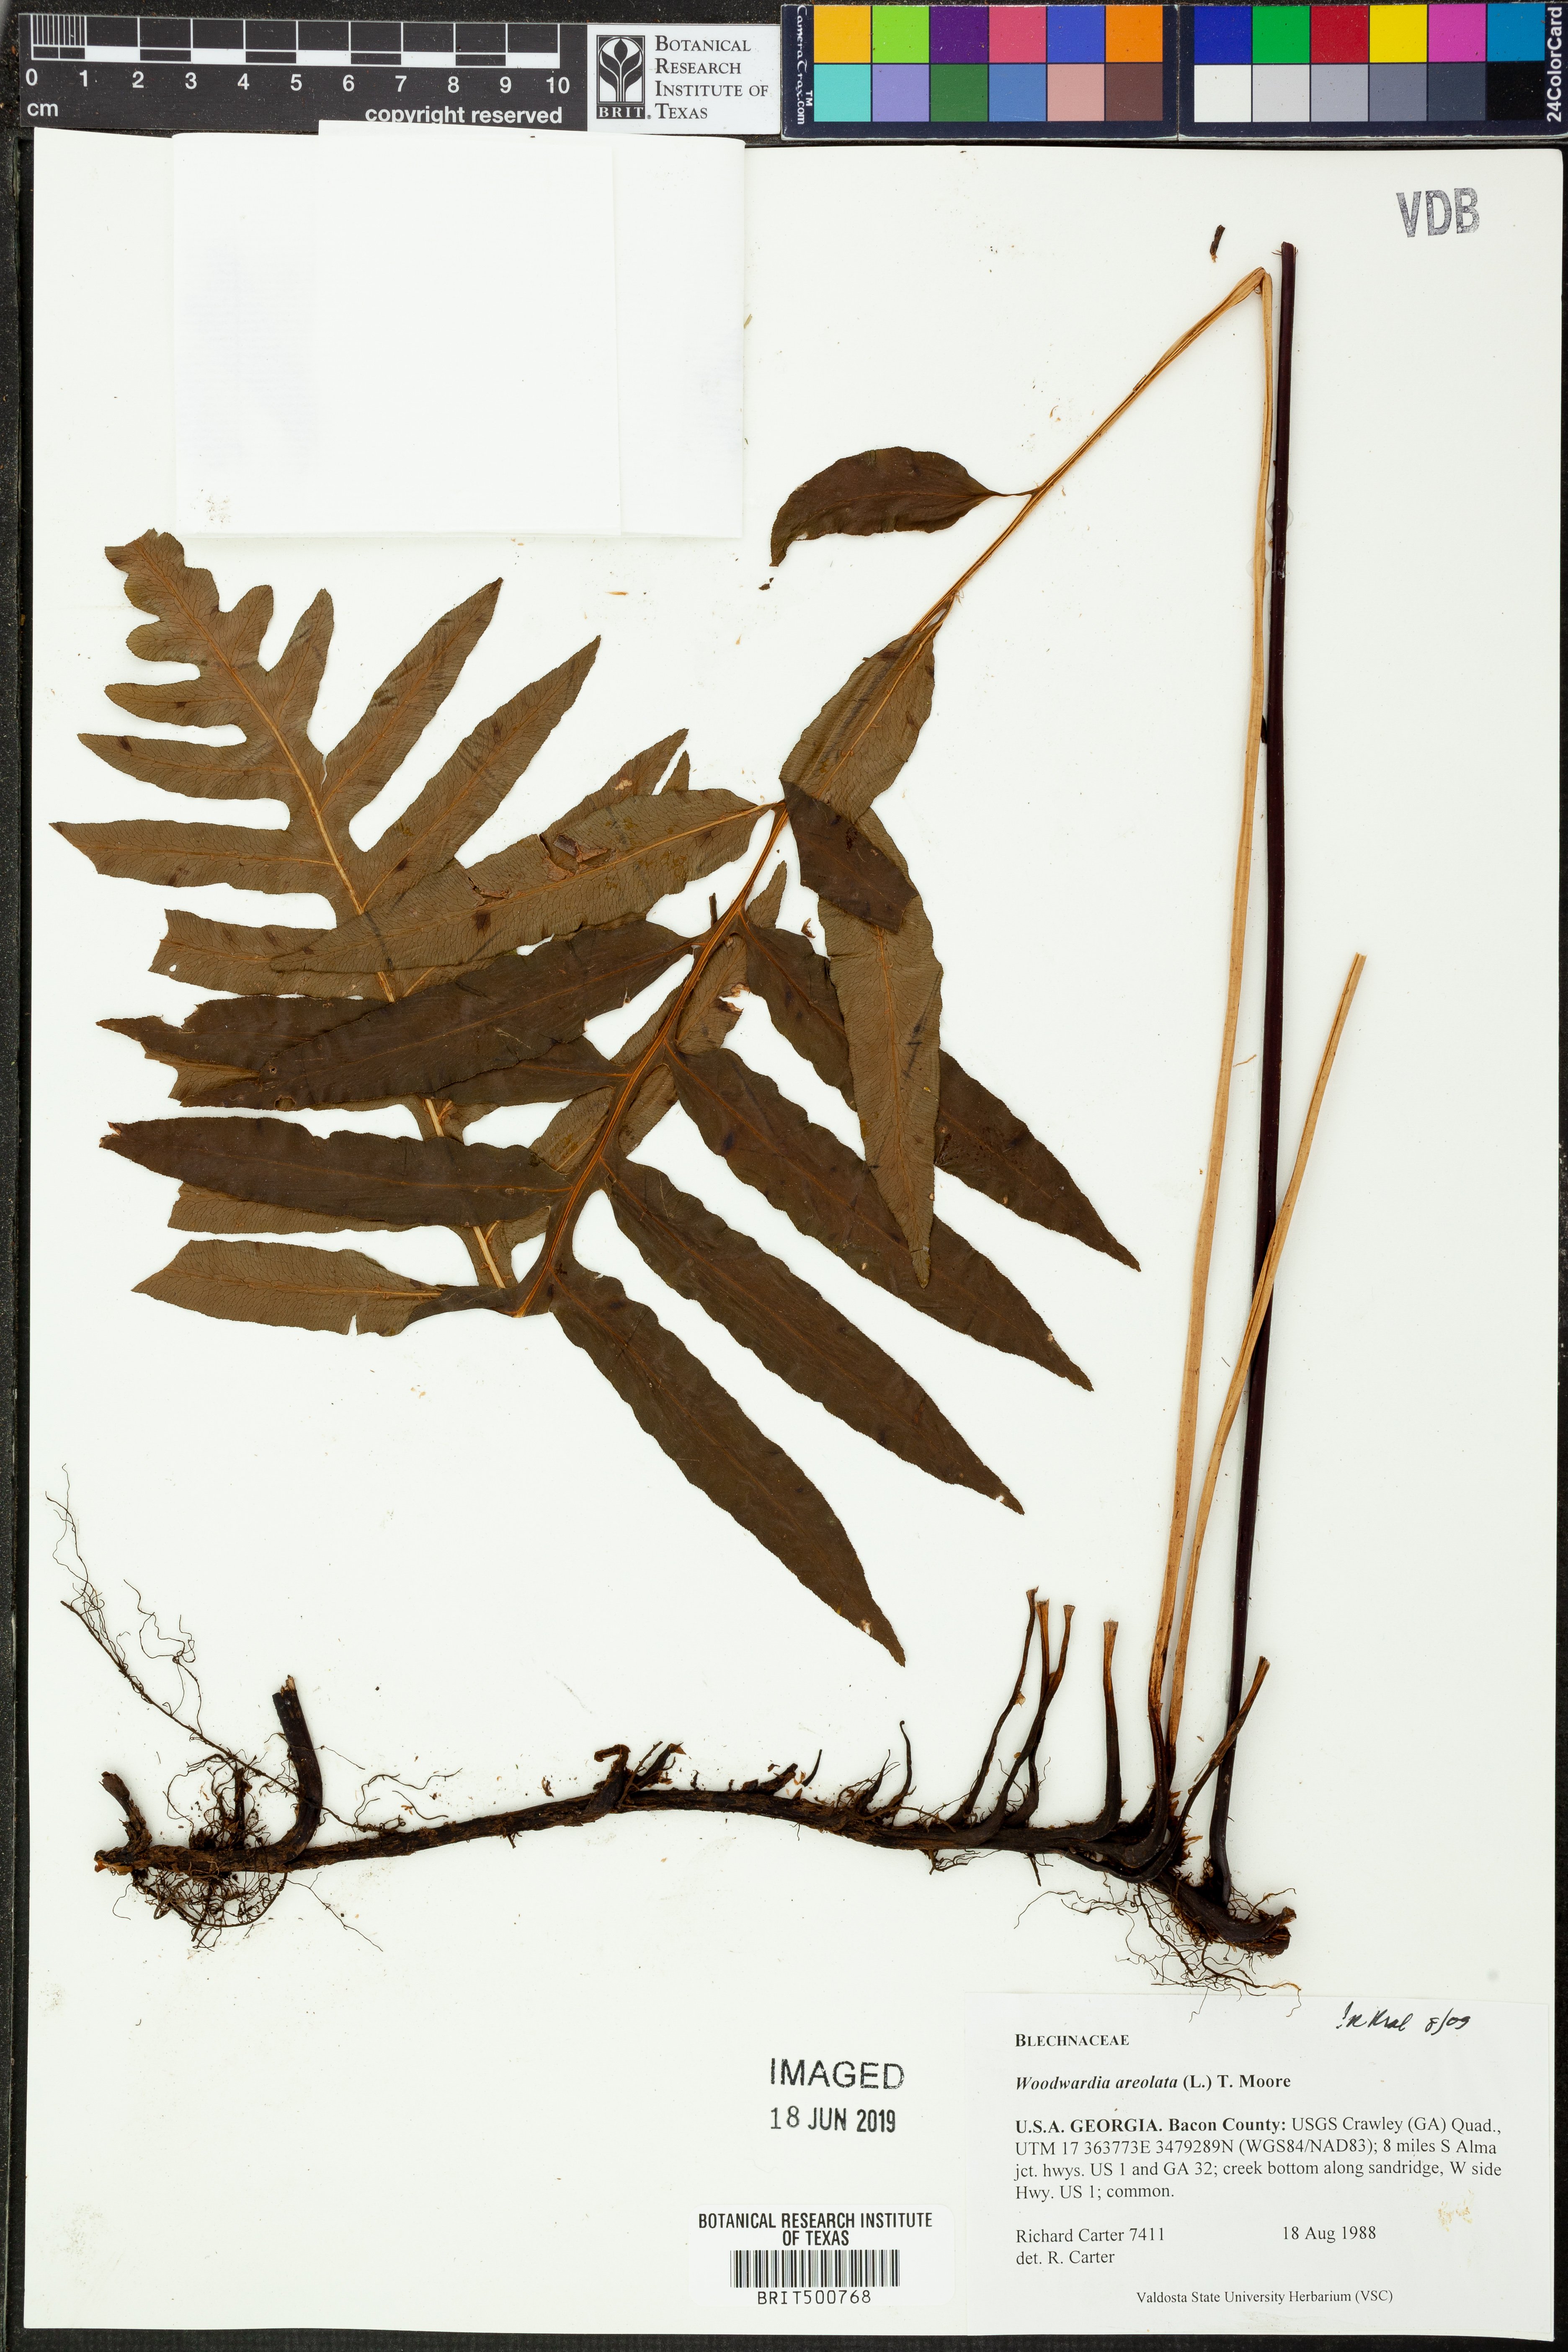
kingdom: Plantae
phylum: Tracheophyta
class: Polypodiopsida
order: Polypodiales
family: Blechnaceae
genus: Lorinseria
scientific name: Lorinseria areolata
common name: Dwarf chain fern
